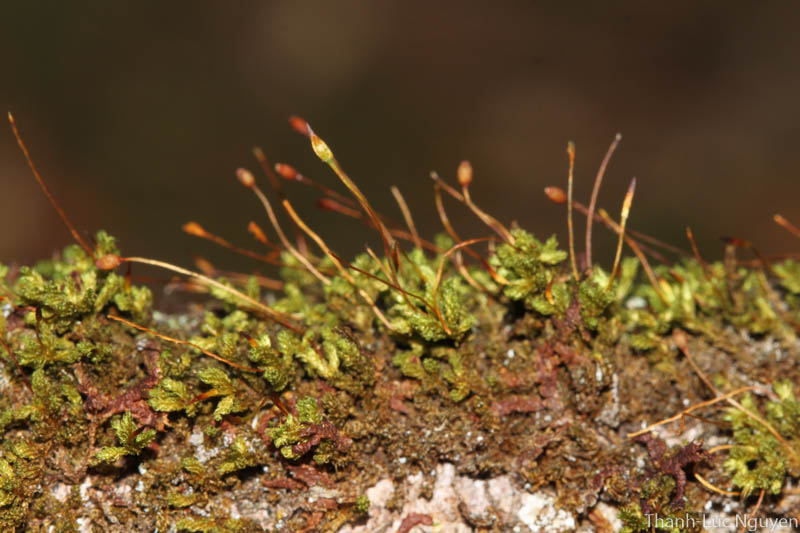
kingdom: Plantae
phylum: Bryophyta
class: Bryopsida
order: Orthotrichales
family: Orthotrichaceae
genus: Macromitrium
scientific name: Macromitrium
